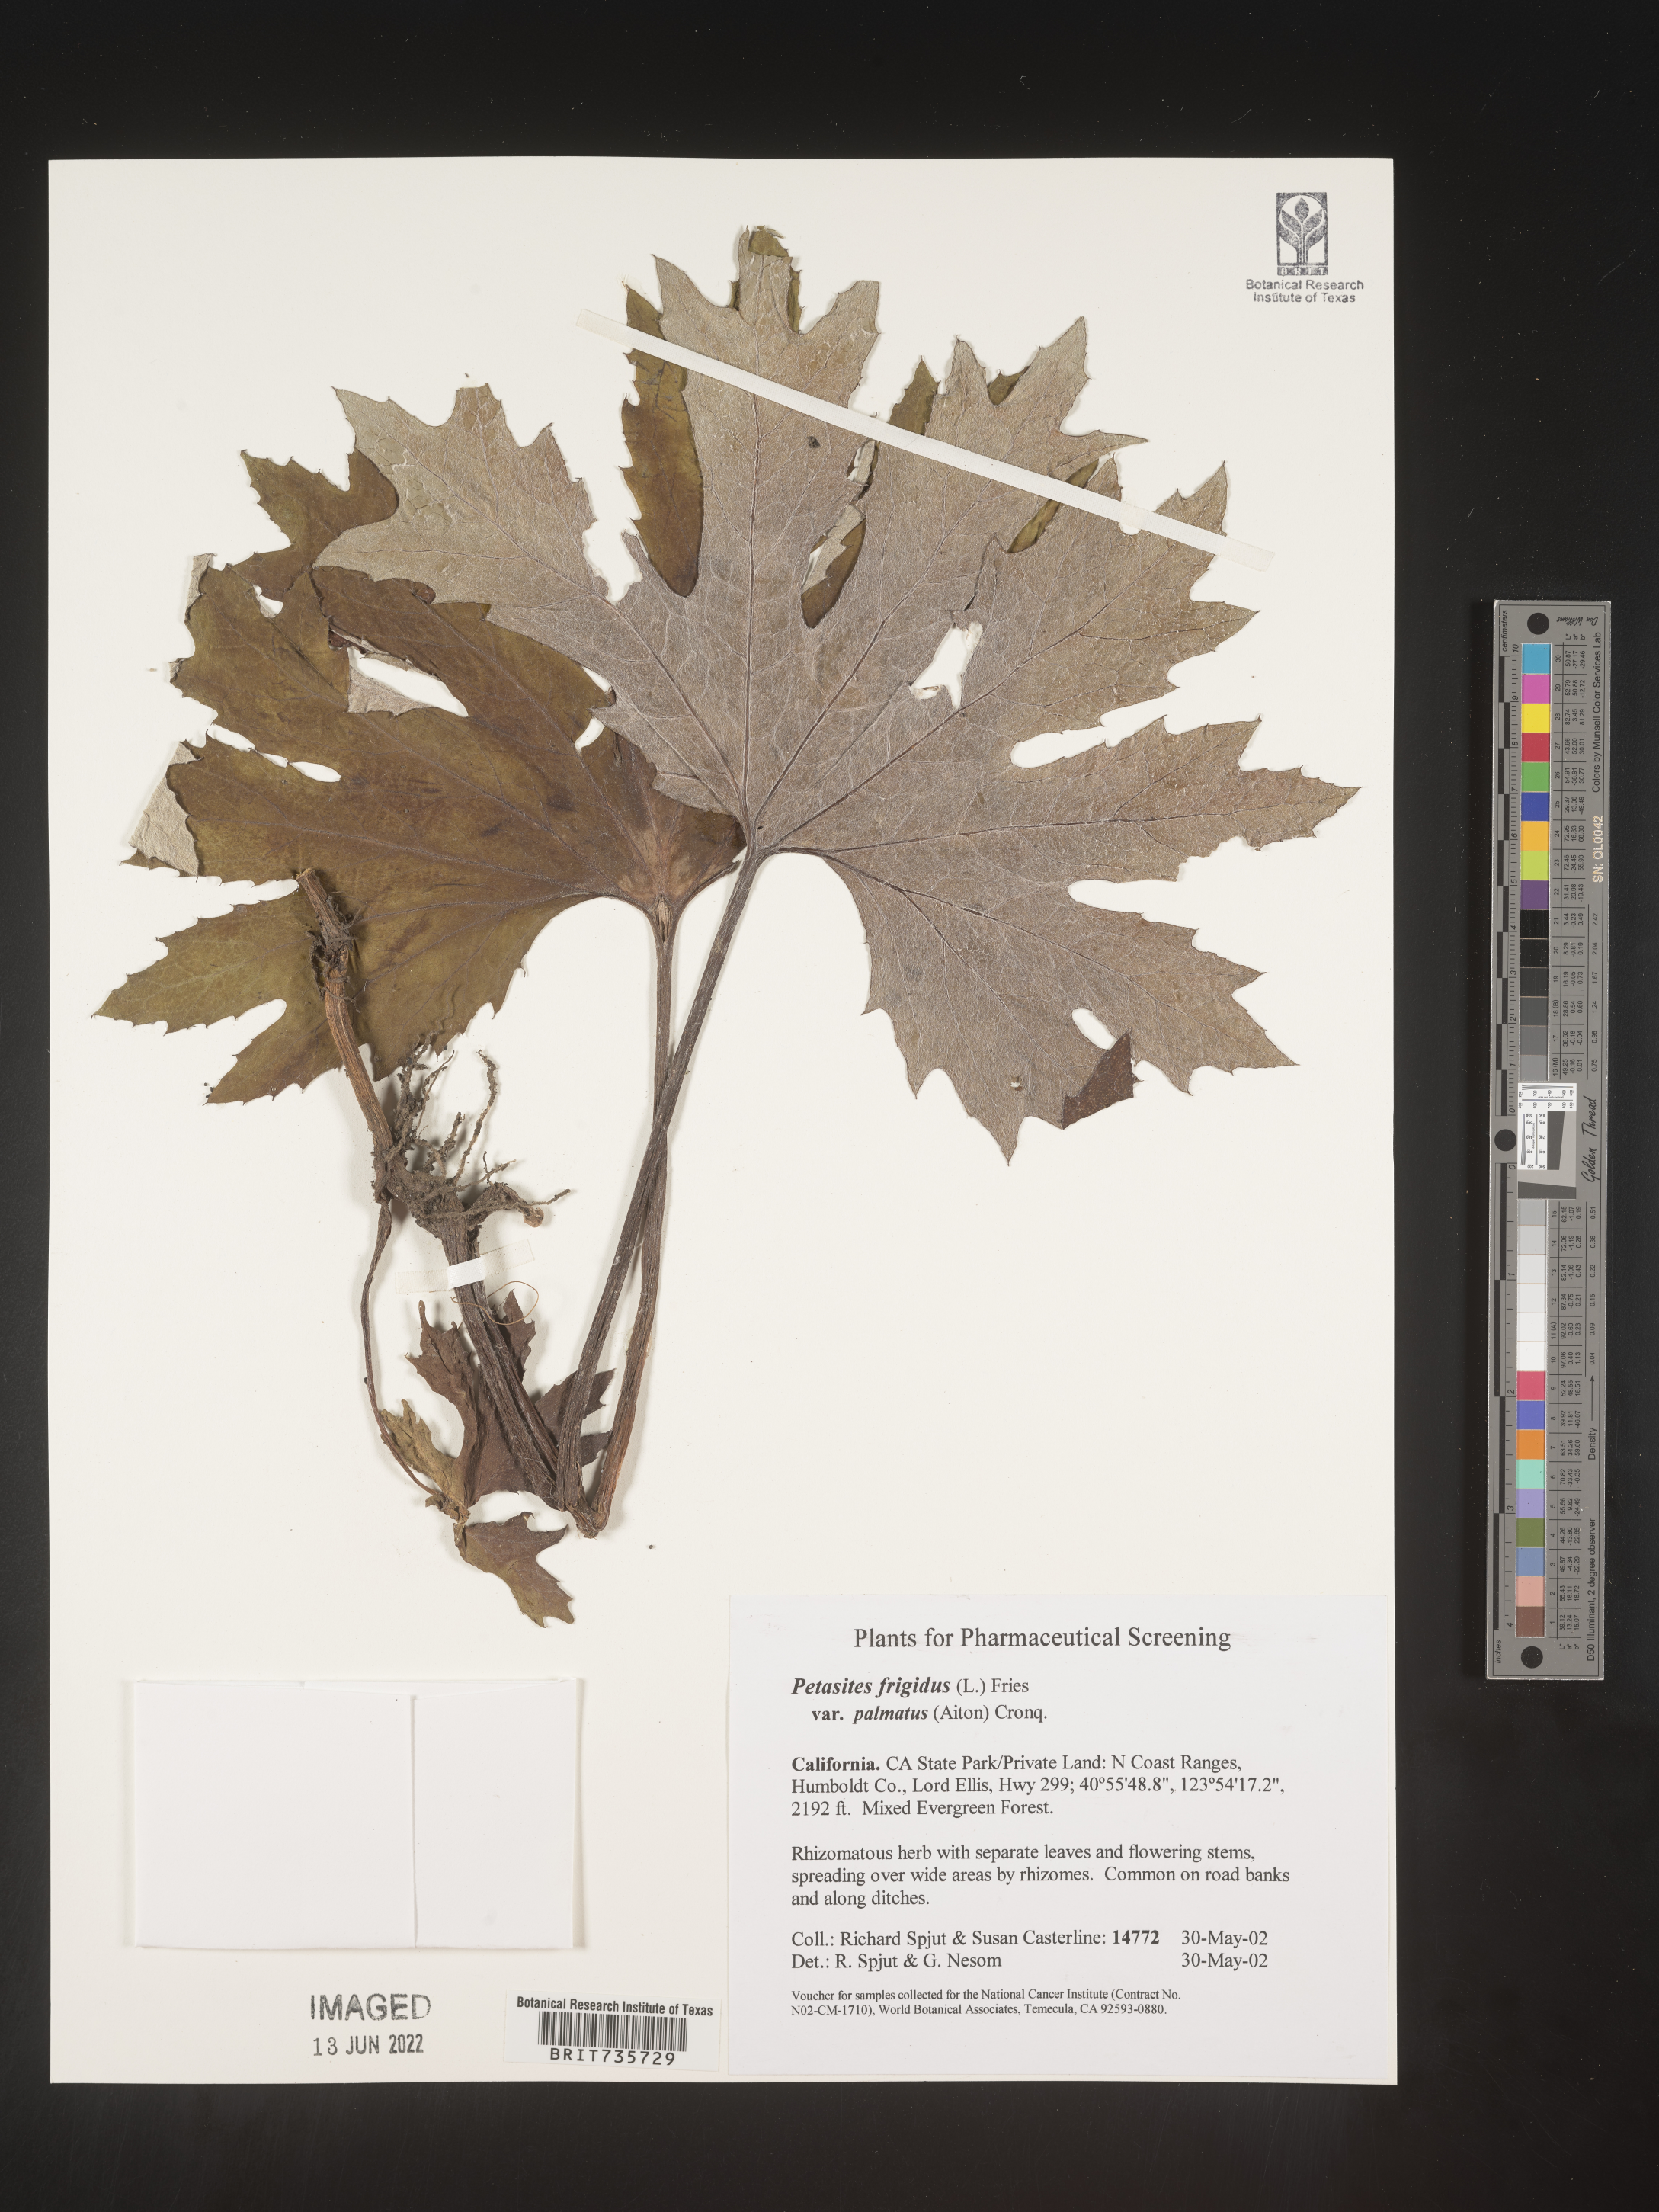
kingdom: Plantae
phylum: Tracheophyta
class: Magnoliopsida
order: Asterales
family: Asteraceae
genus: Petasites
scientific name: Petasites frigidus
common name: Arctic butterbur
